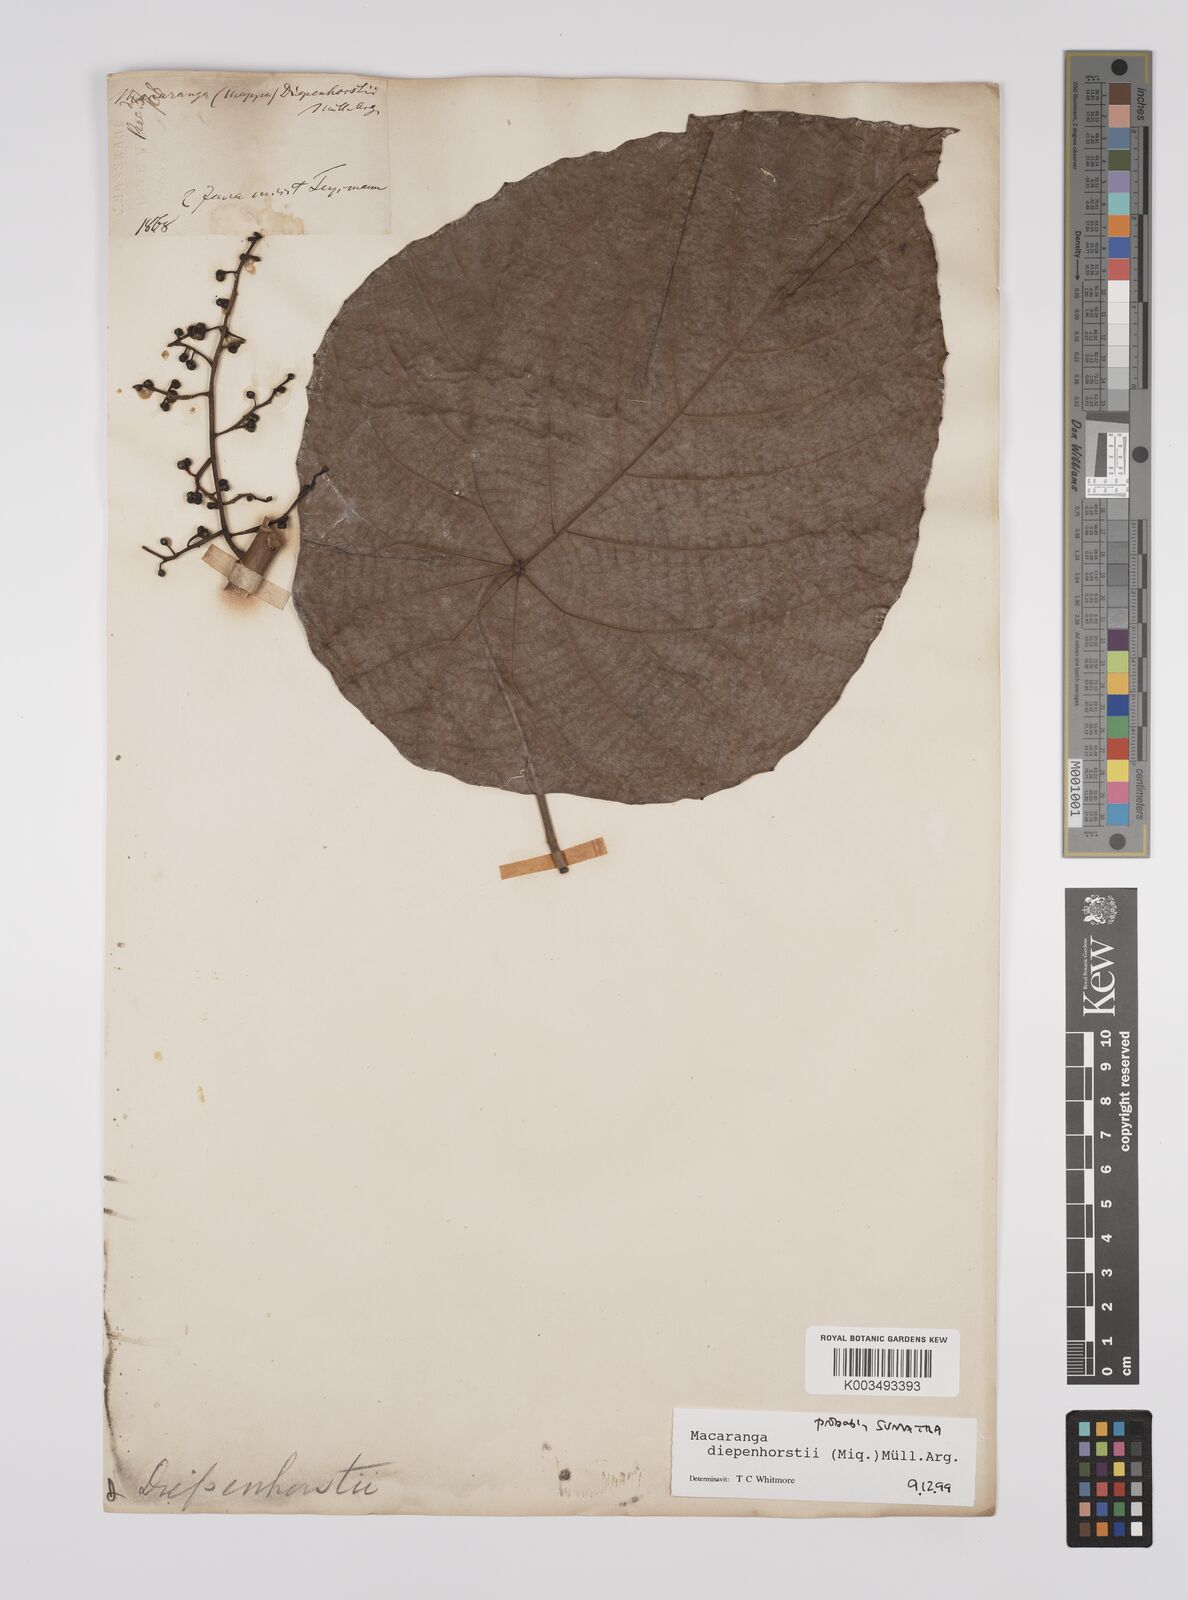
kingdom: Plantae
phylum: Tracheophyta
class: Magnoliopsida
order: Malpighiales
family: Euphorbiaceae
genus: Macaranga
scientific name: Macaranga diepenhorstii
